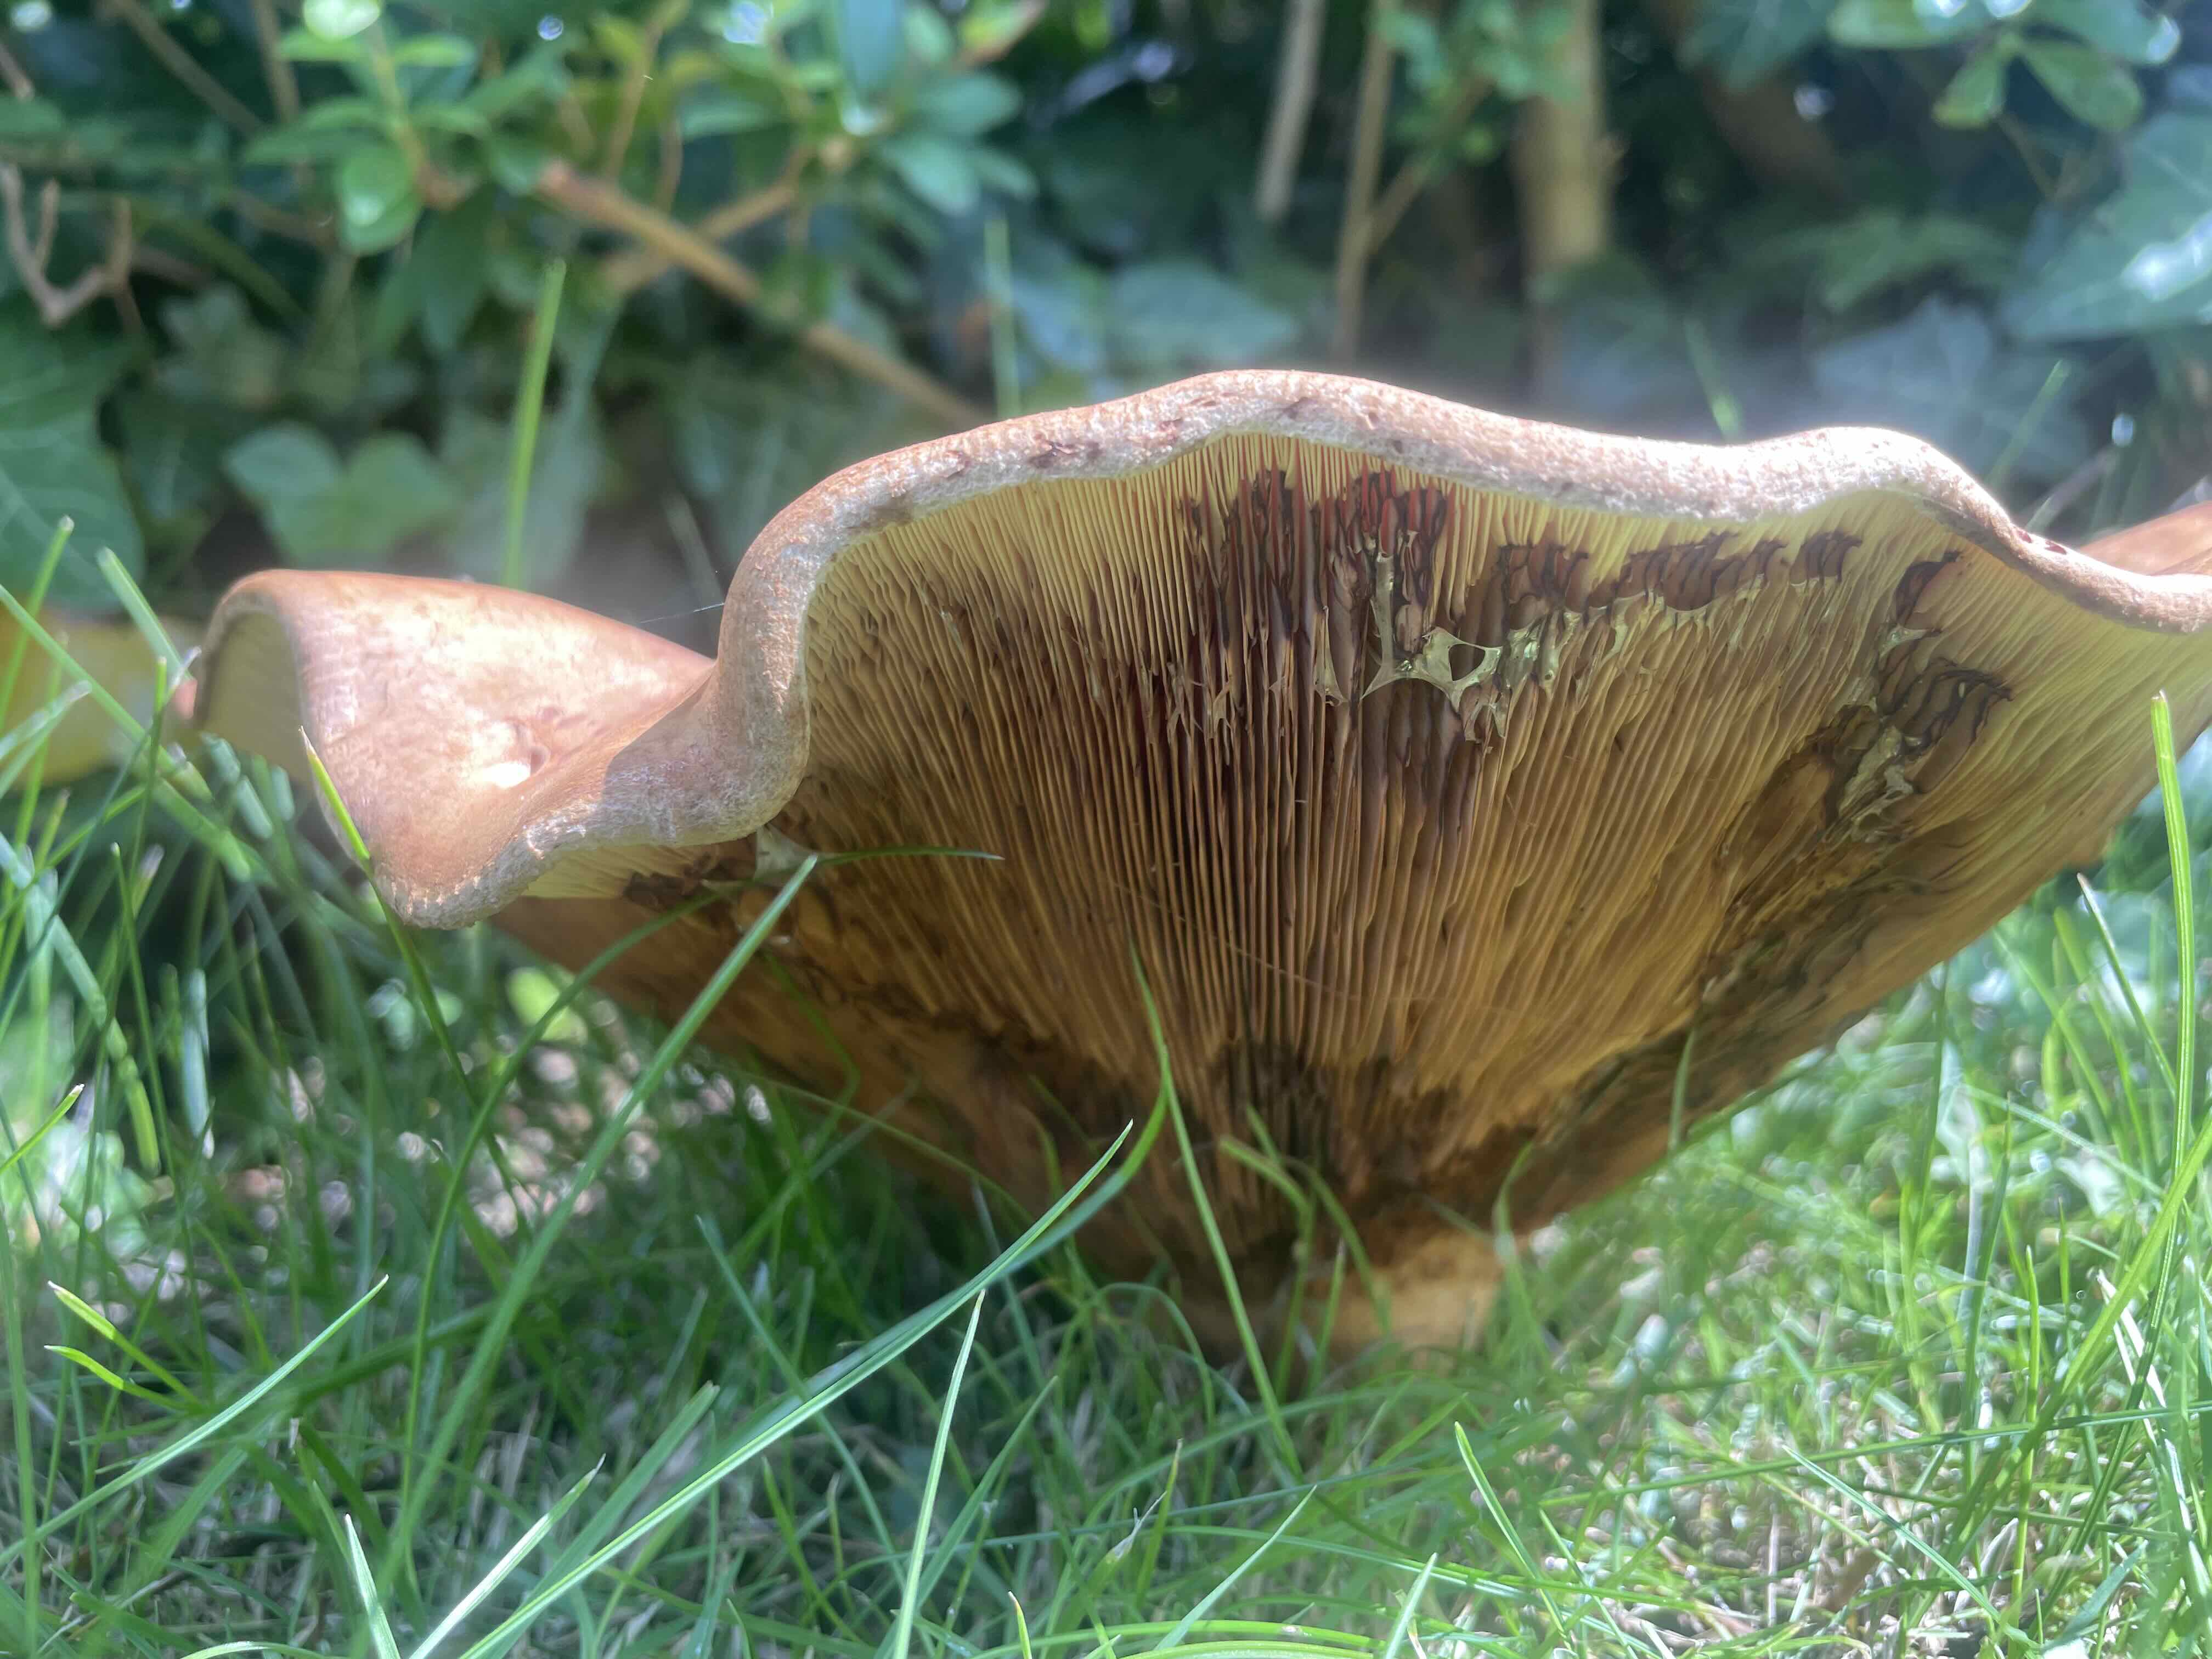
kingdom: Fungi
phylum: Basidiomycota
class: Agaricomycetes
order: Boletales
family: Paxillaceae
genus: Paxillus
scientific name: Paxillus
